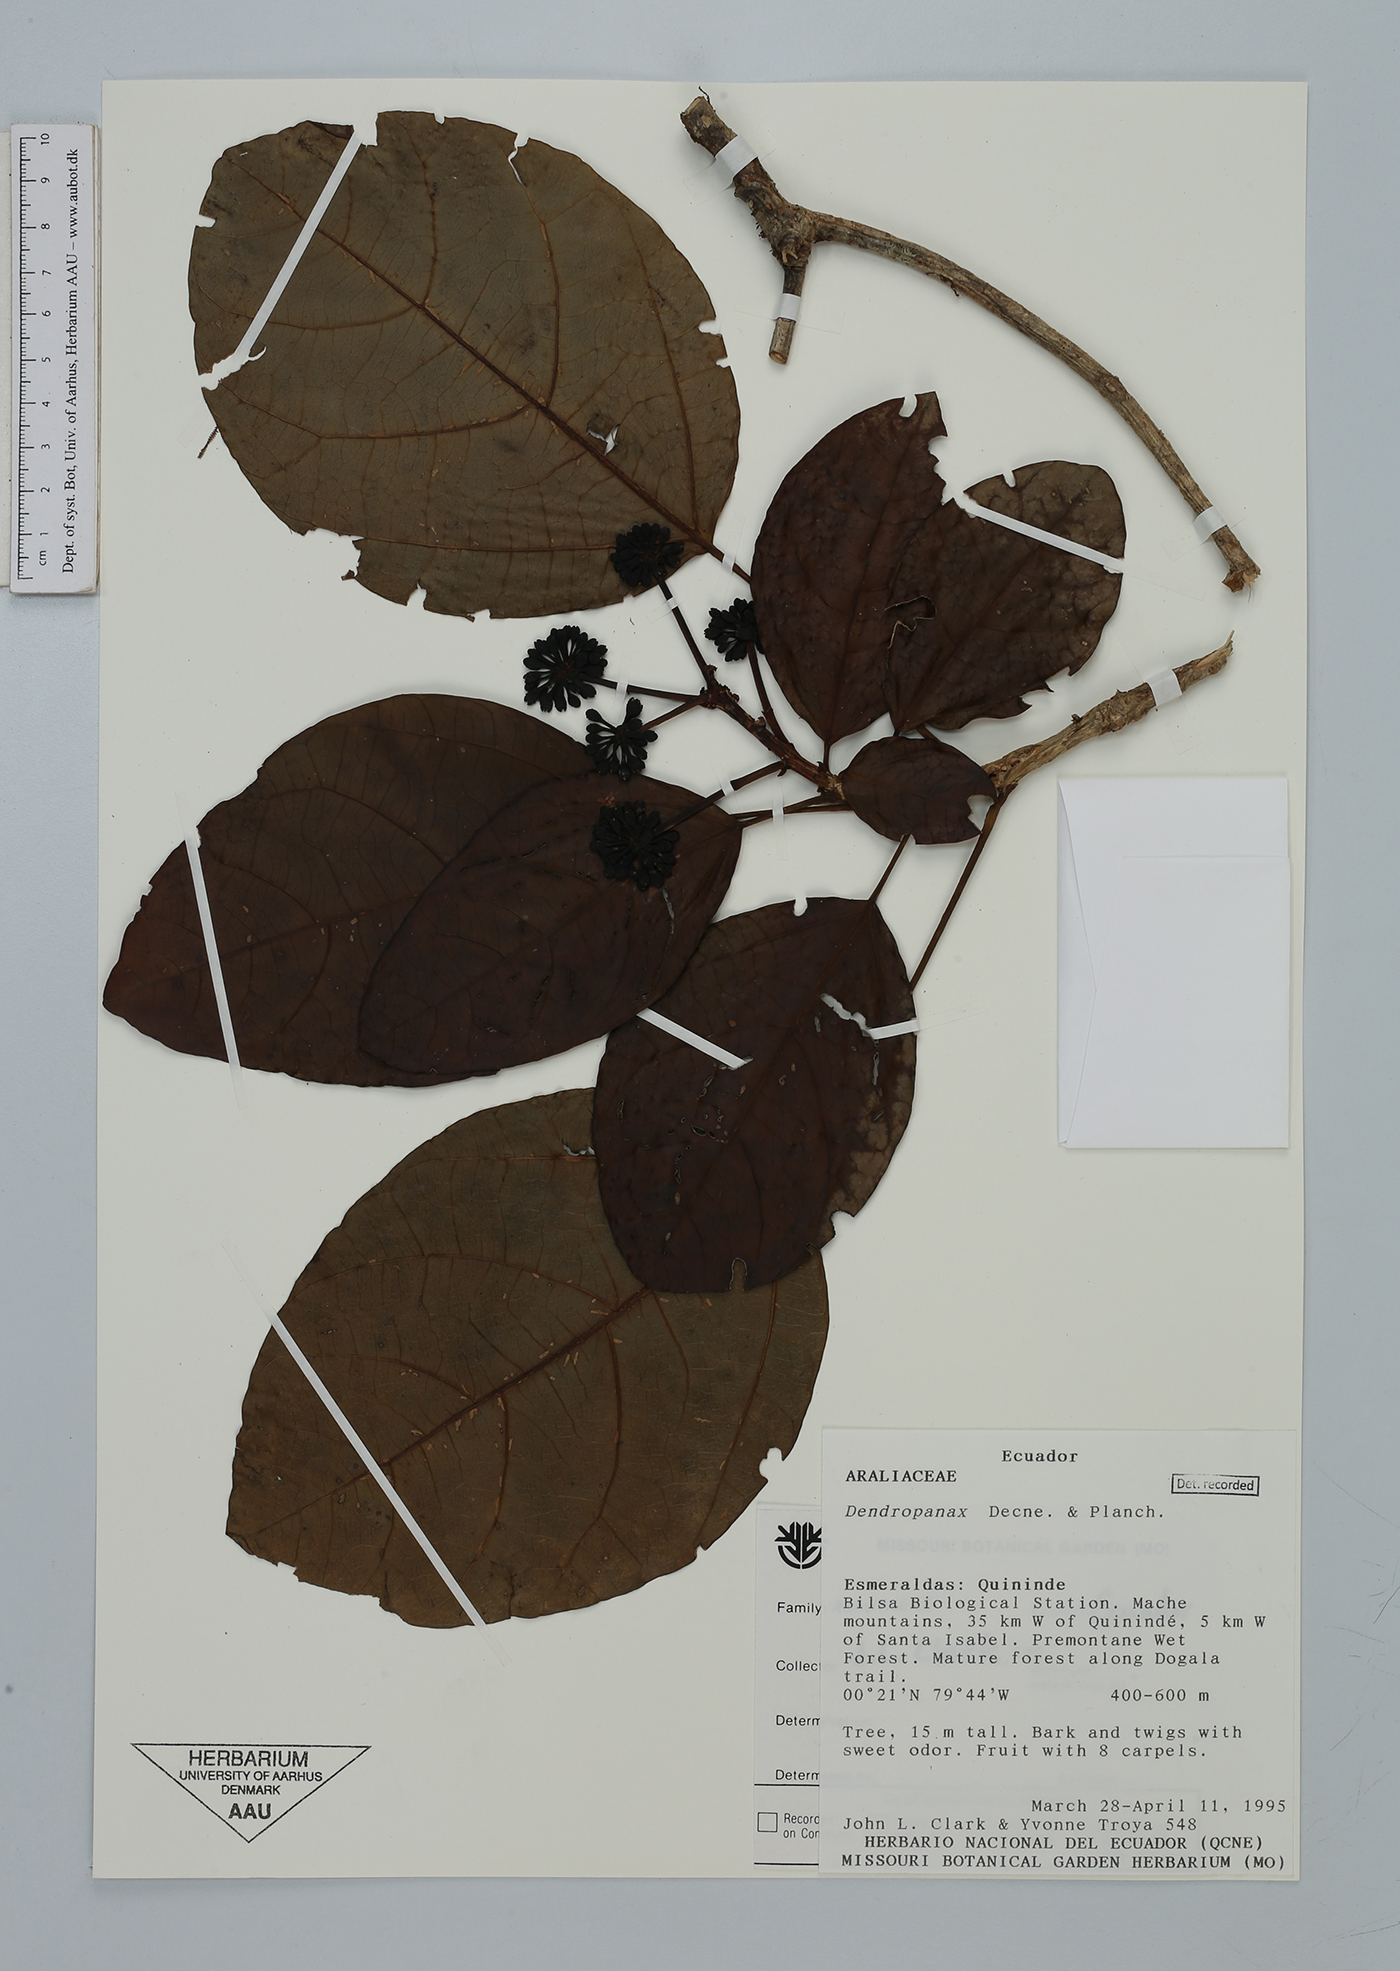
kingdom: Plantae
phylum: Tracheophyta
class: Magnoliopsida
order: Apiales
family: Araliaceae
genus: Dendropanax
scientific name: Dendropanax
